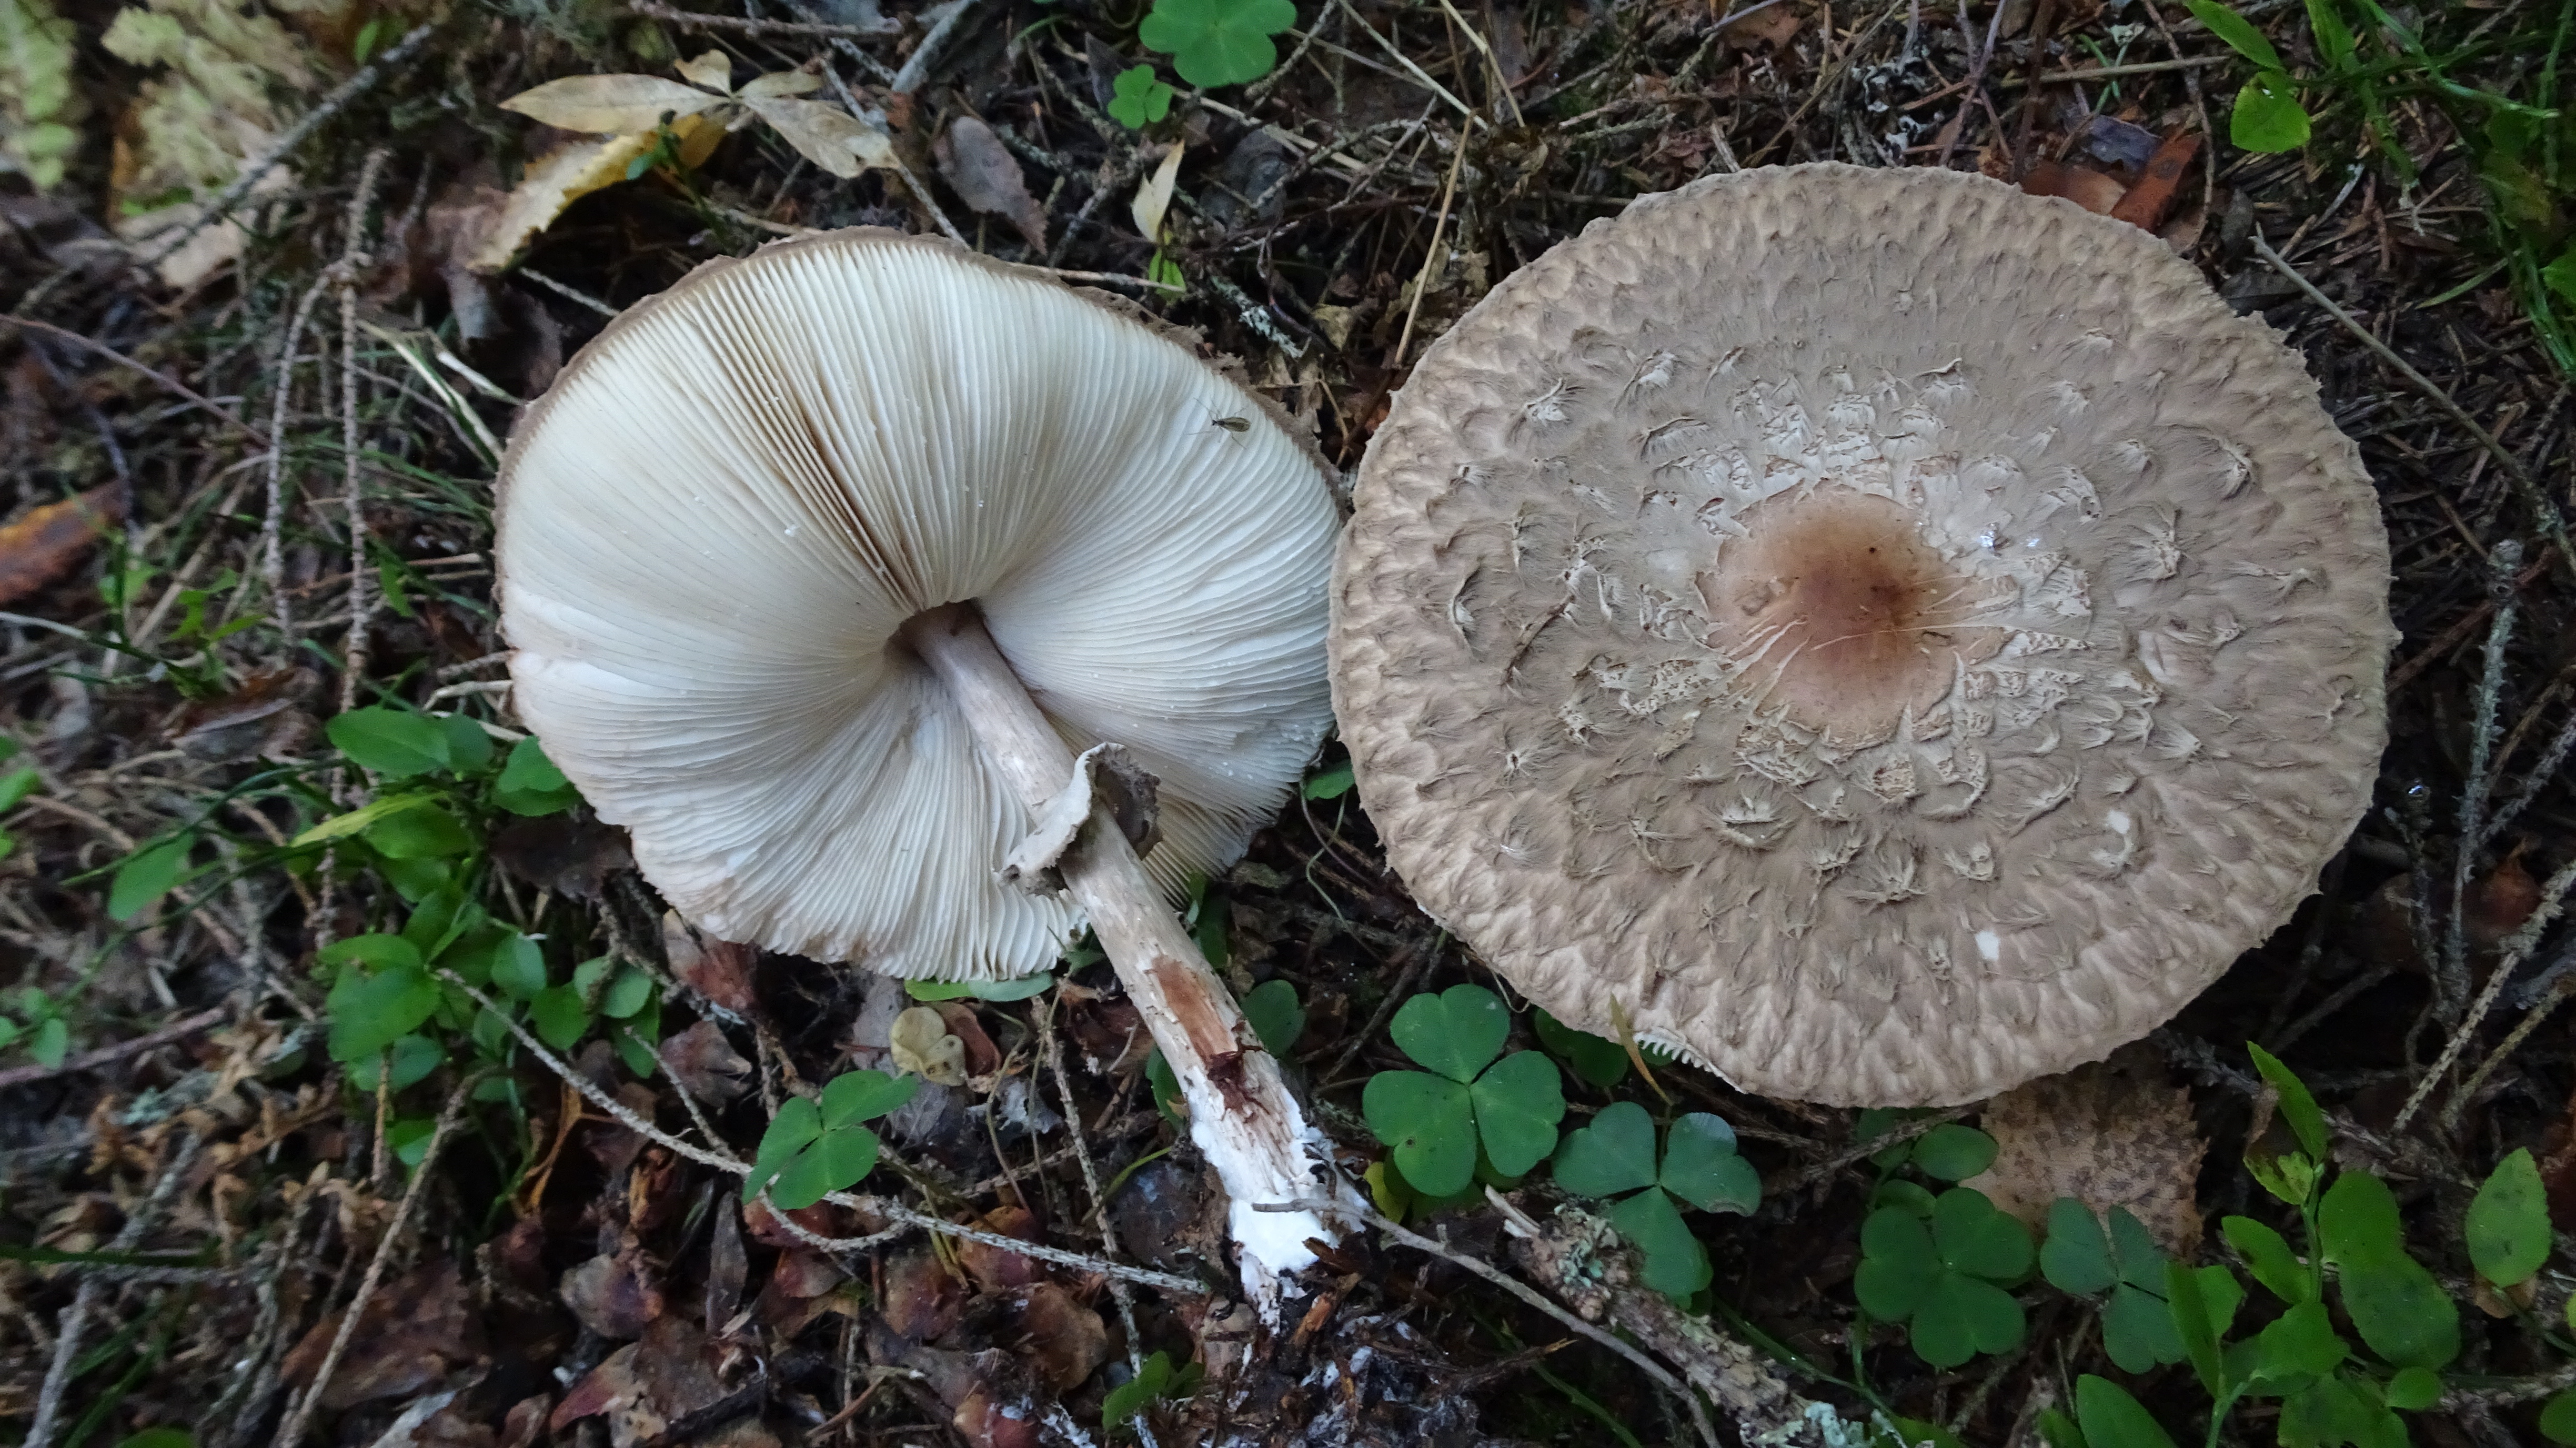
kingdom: Fungi
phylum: Basidiomycota
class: Agaricomycetes
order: Agaricales
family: Agaricaceae
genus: Chlorophyllum
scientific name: Chlorophyllum olivieri
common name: Conifer parasol
